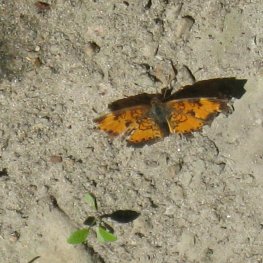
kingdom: Animalia
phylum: Arthropoda
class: Insecta
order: Lepidoptera
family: Nymphalidae
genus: Phyciodes
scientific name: Phyciodes tharos
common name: Pearl Crescent
